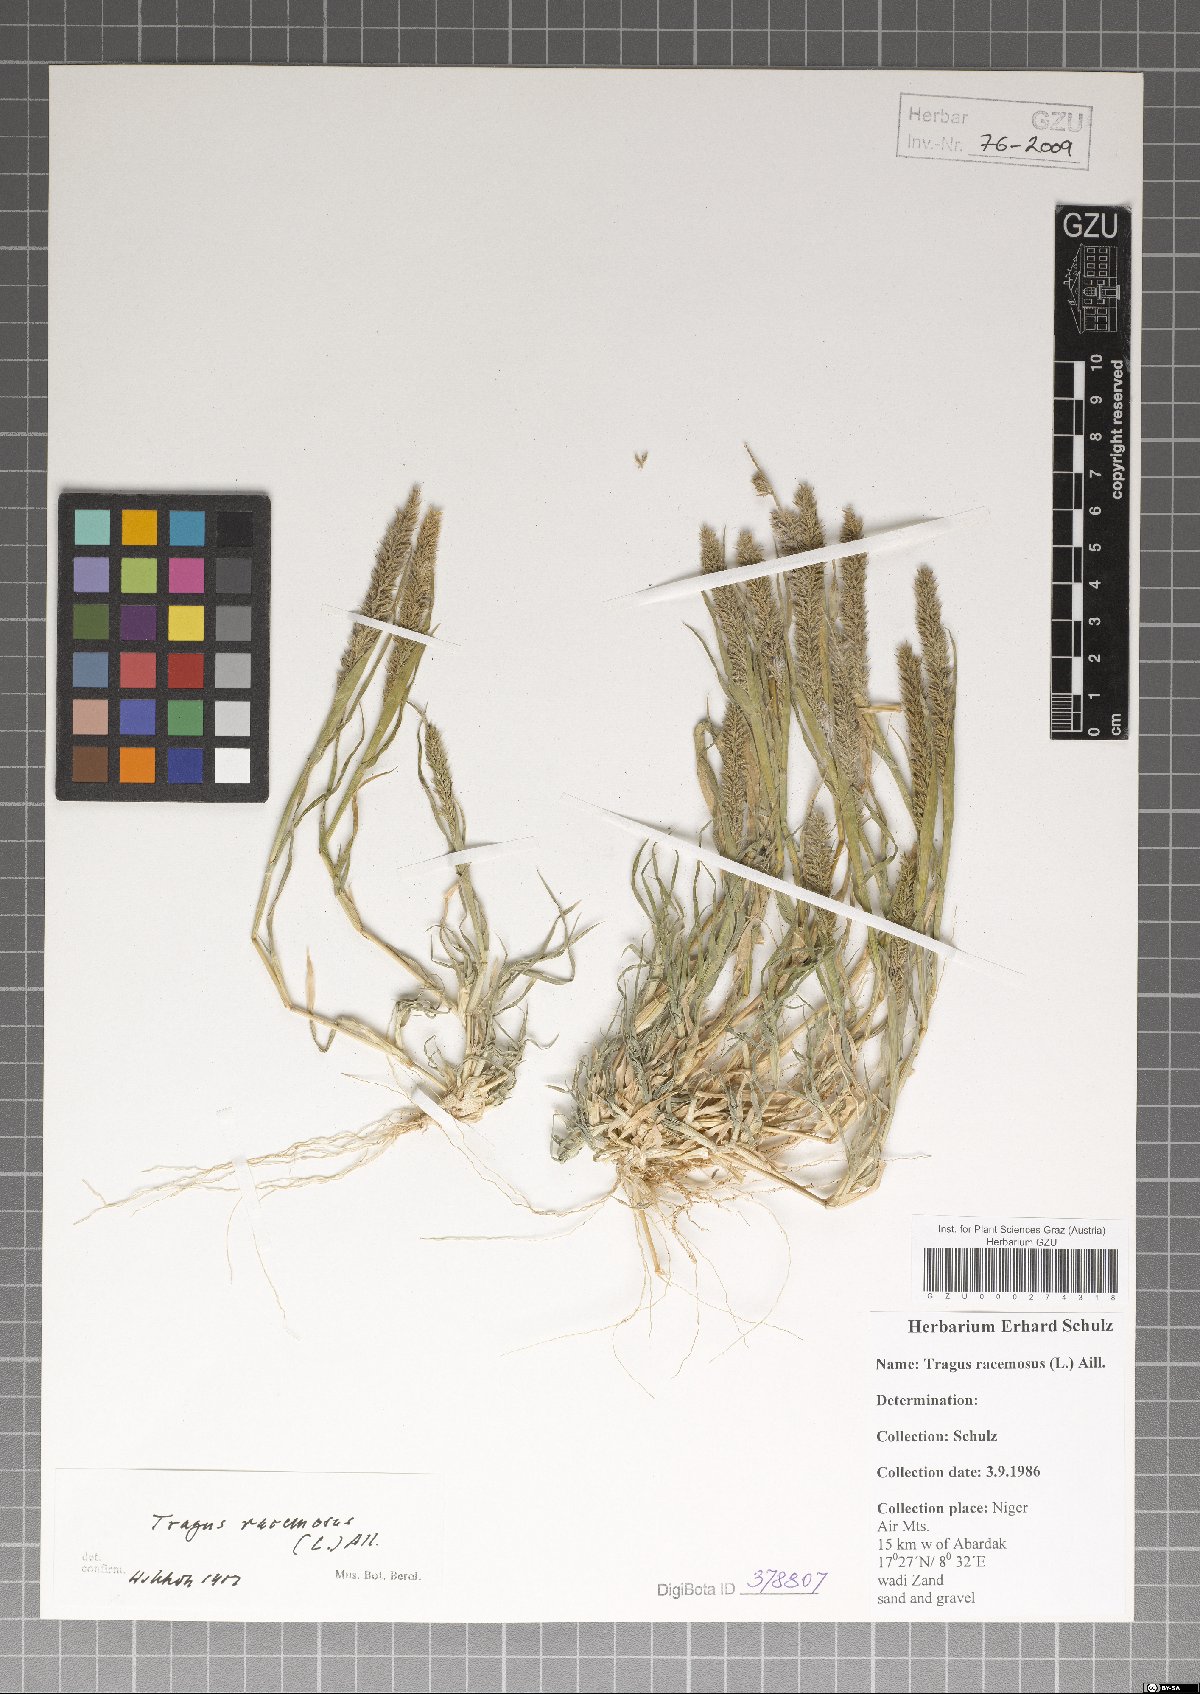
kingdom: Plantae
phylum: Tracheophyta
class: Liliopsida
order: Poales
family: Poaceae
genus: Tragus
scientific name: Tragus racemosus
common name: European bur-grass
